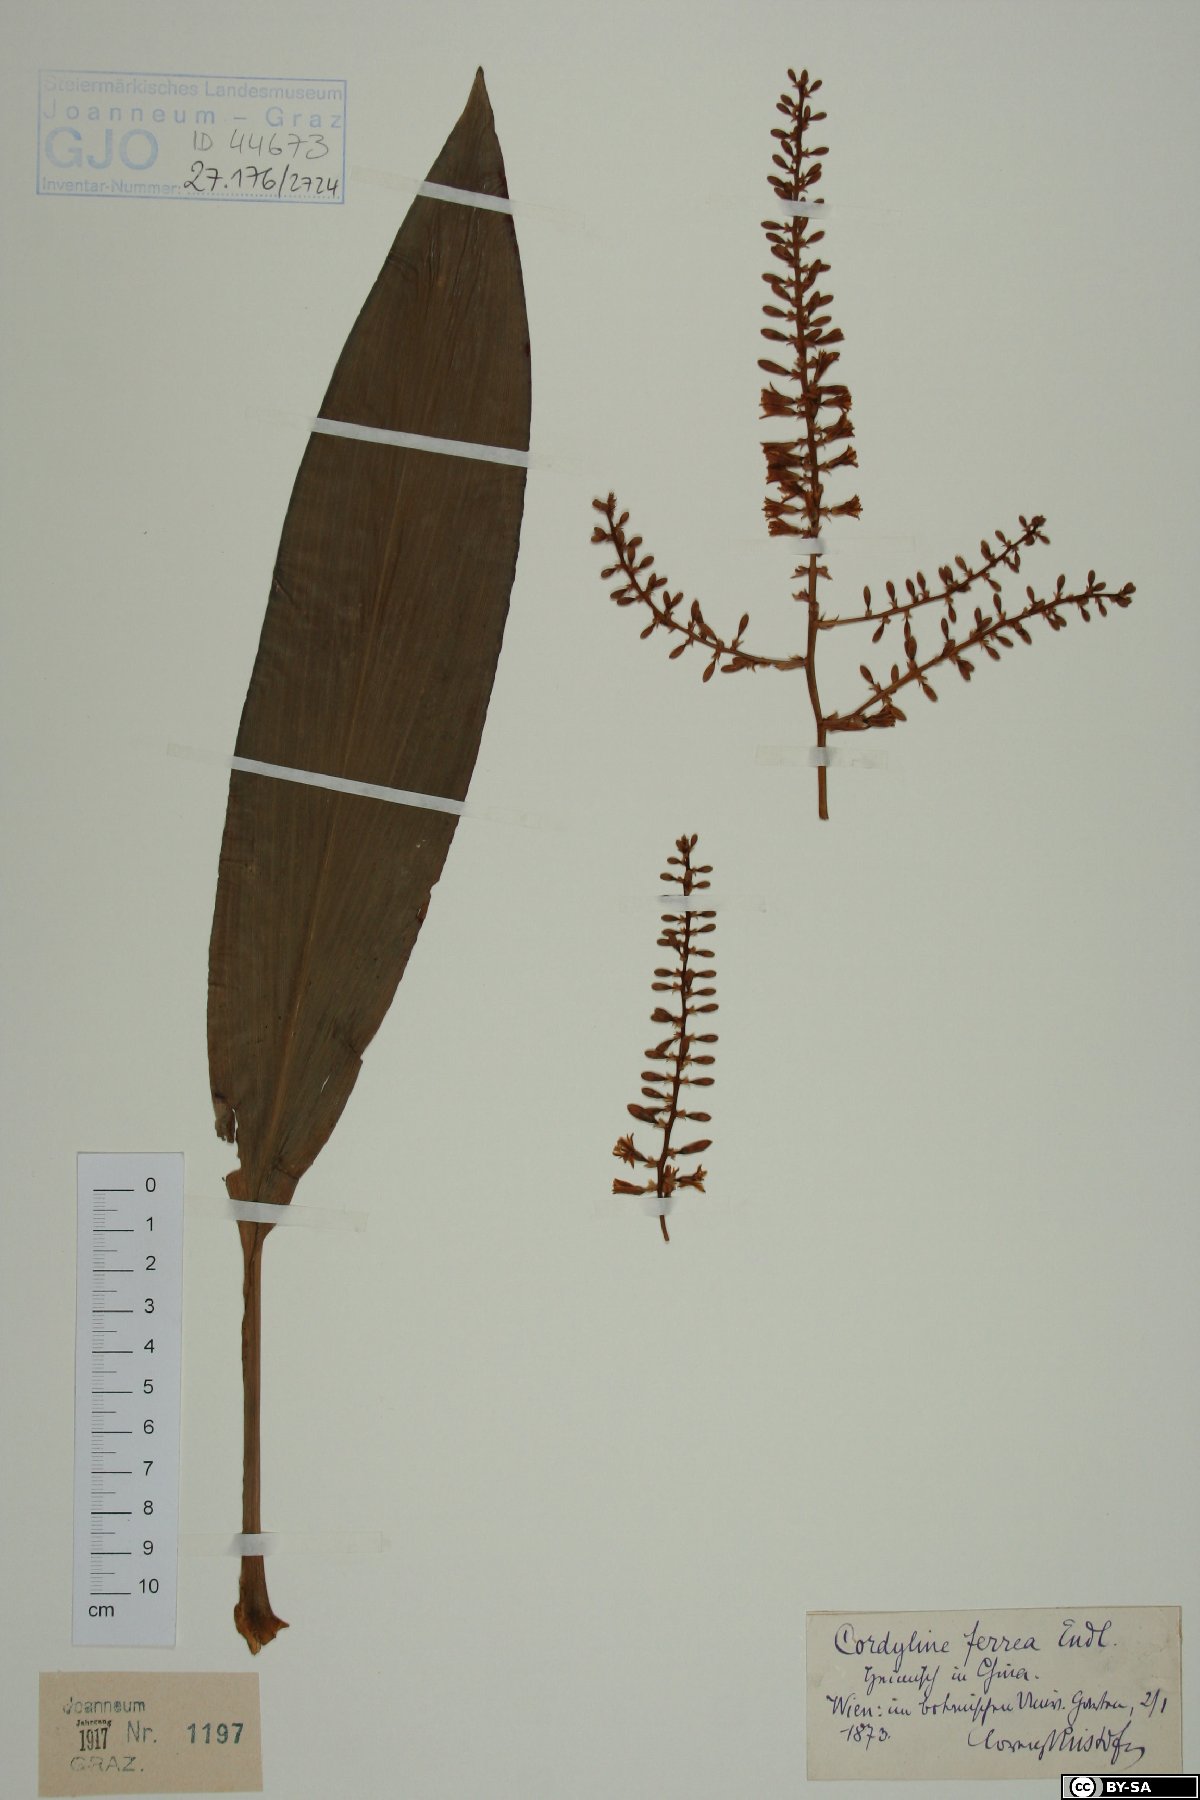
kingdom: Plantae
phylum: Tracheophyta
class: Liliopsida
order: Asparagales
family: Asparagaceae
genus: Cordyline
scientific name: Cordyline fruticosa
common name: Good-luck-plant
